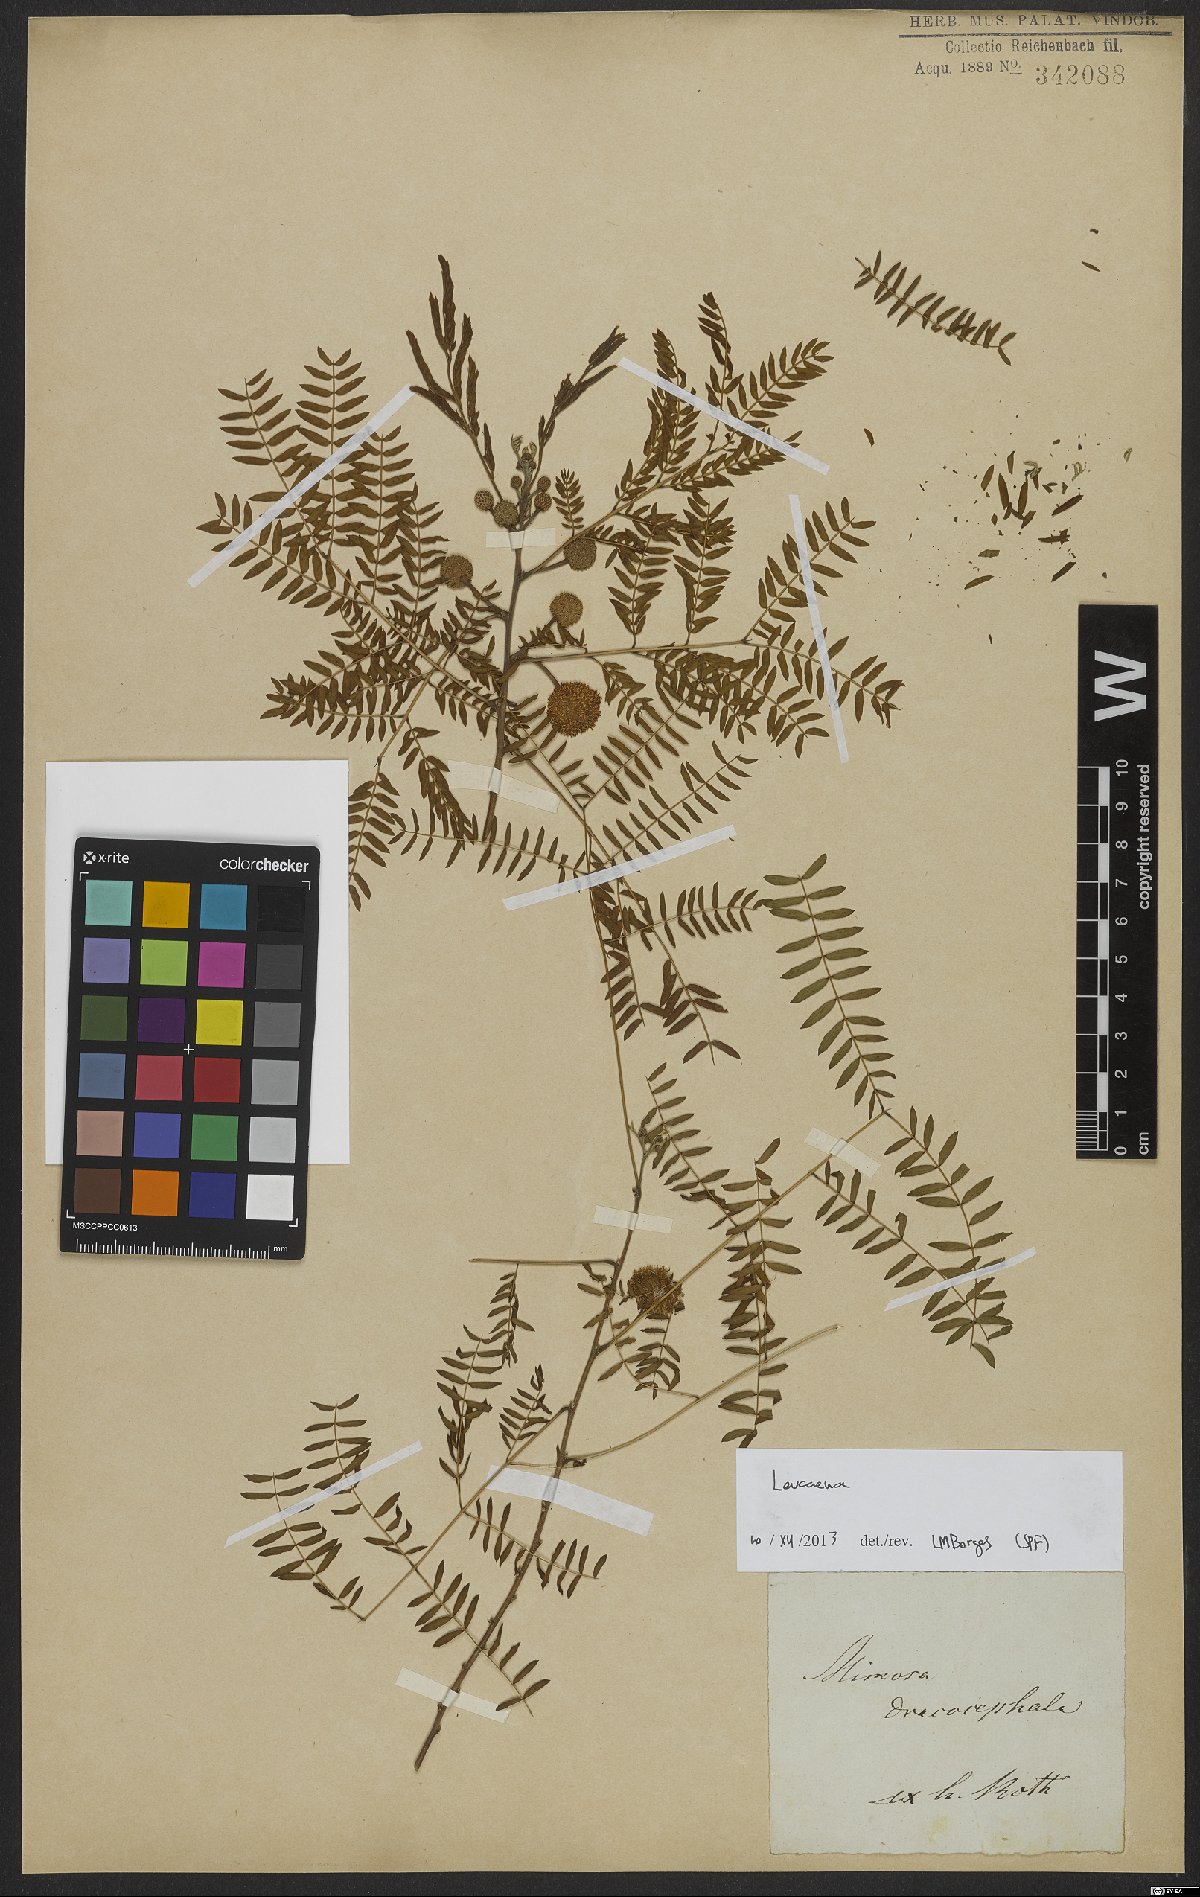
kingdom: Plantae
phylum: Tracheophyta
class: Magnoliopsida
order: Fabales
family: Fabaceae
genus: Leucaena
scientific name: Leucaena
